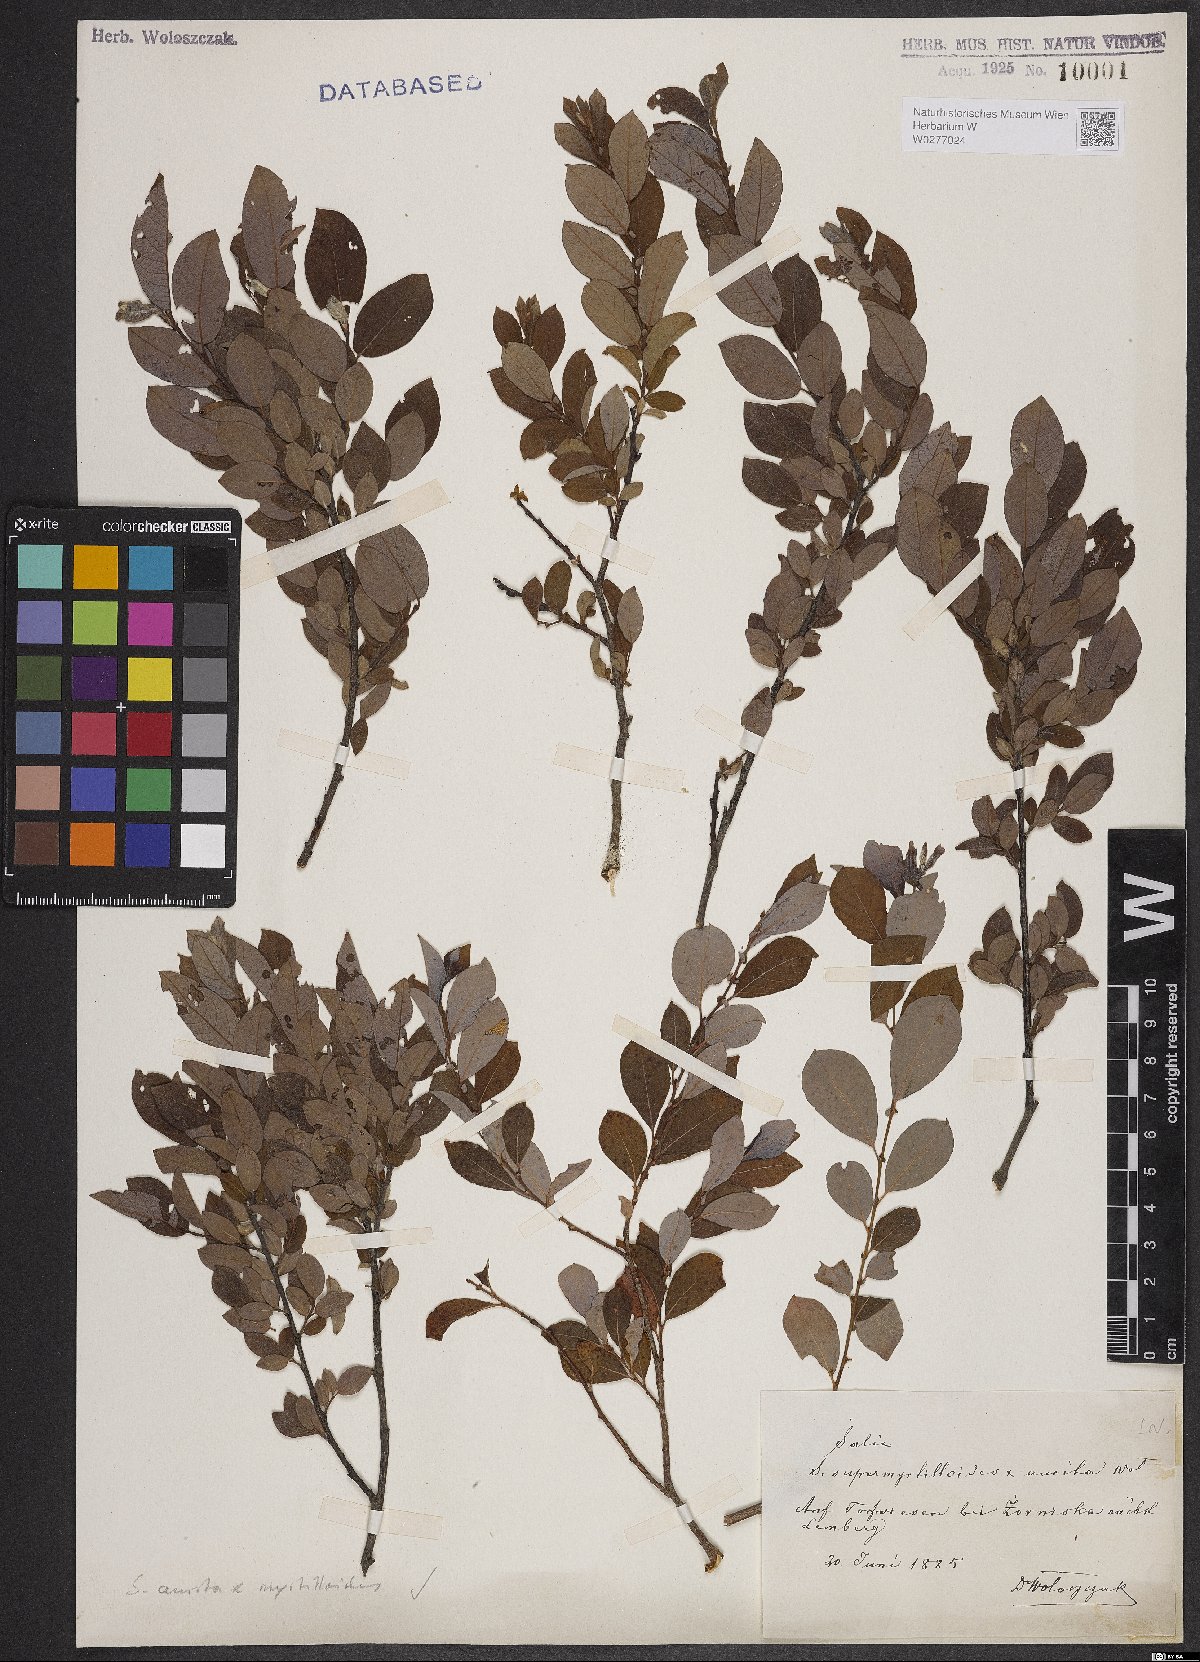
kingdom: Plantae
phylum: Tracheophyta
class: Magnoliopsida
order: Malpighiales
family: Salicaceae
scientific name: Salicaceae
